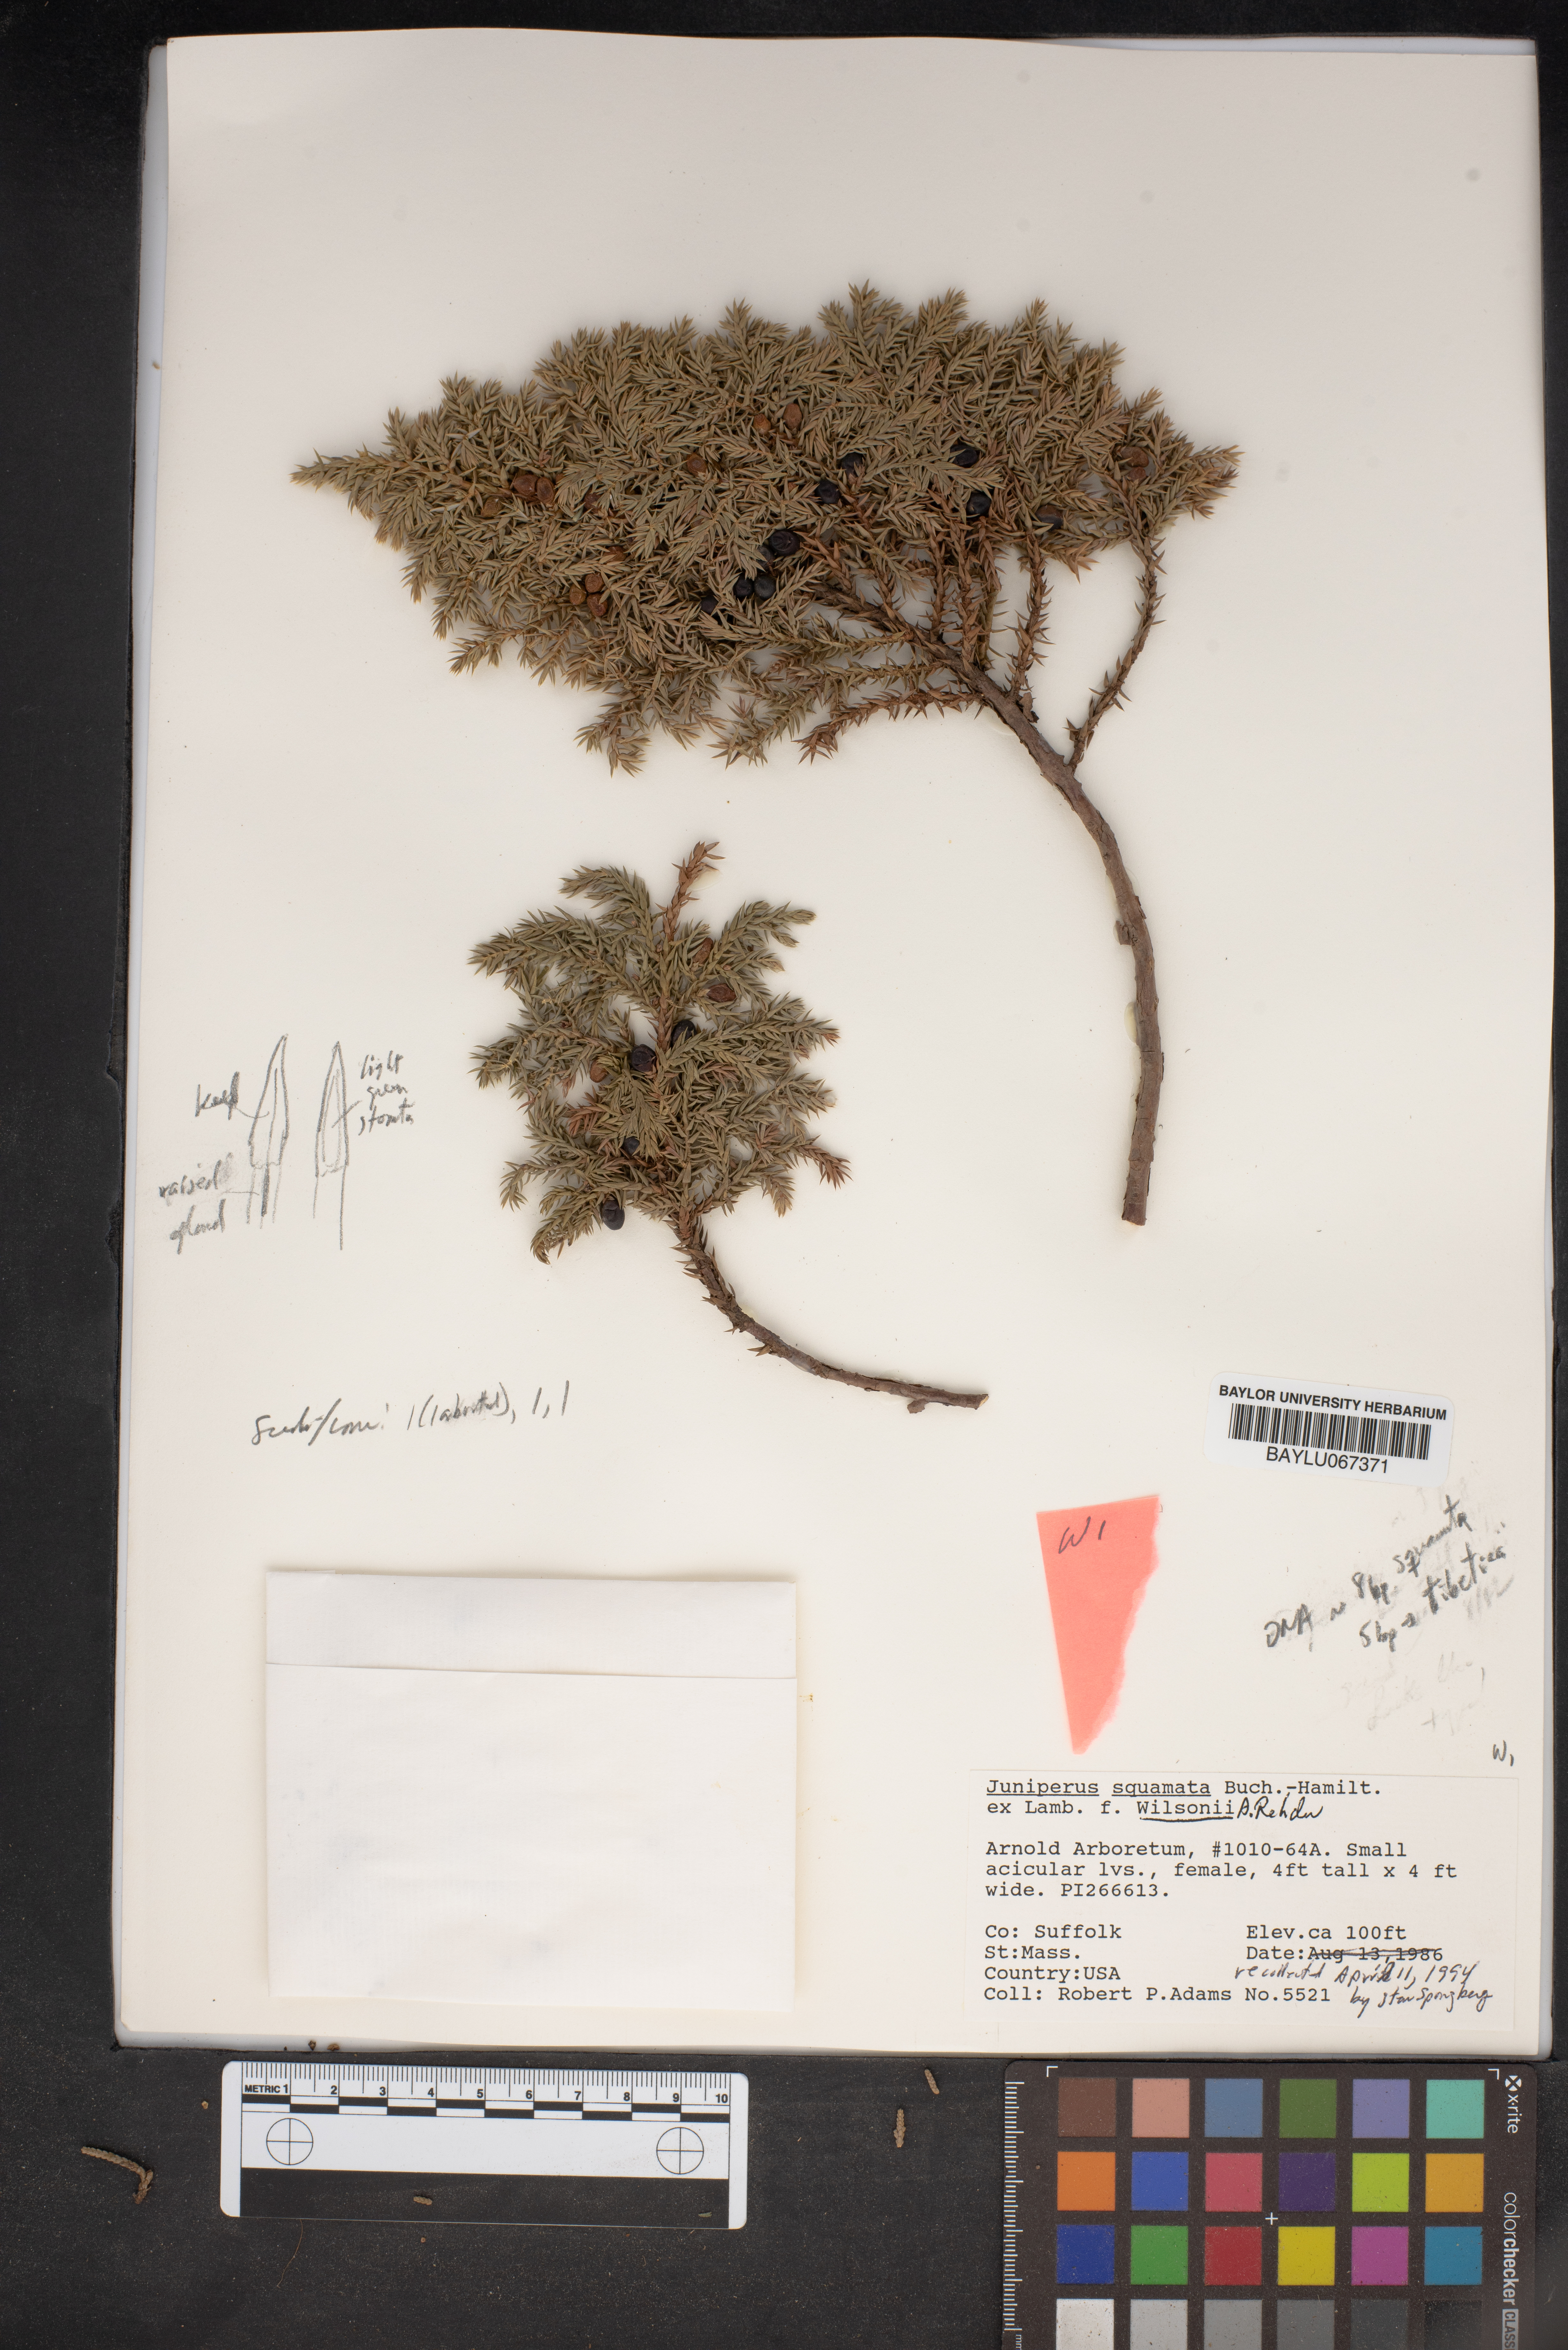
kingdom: Plantae
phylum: Tracheophyta
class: Pinopsida
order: Pinales
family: Cupressaceae
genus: Juniperus
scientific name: Juniperus squamata
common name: Flaky juniper
